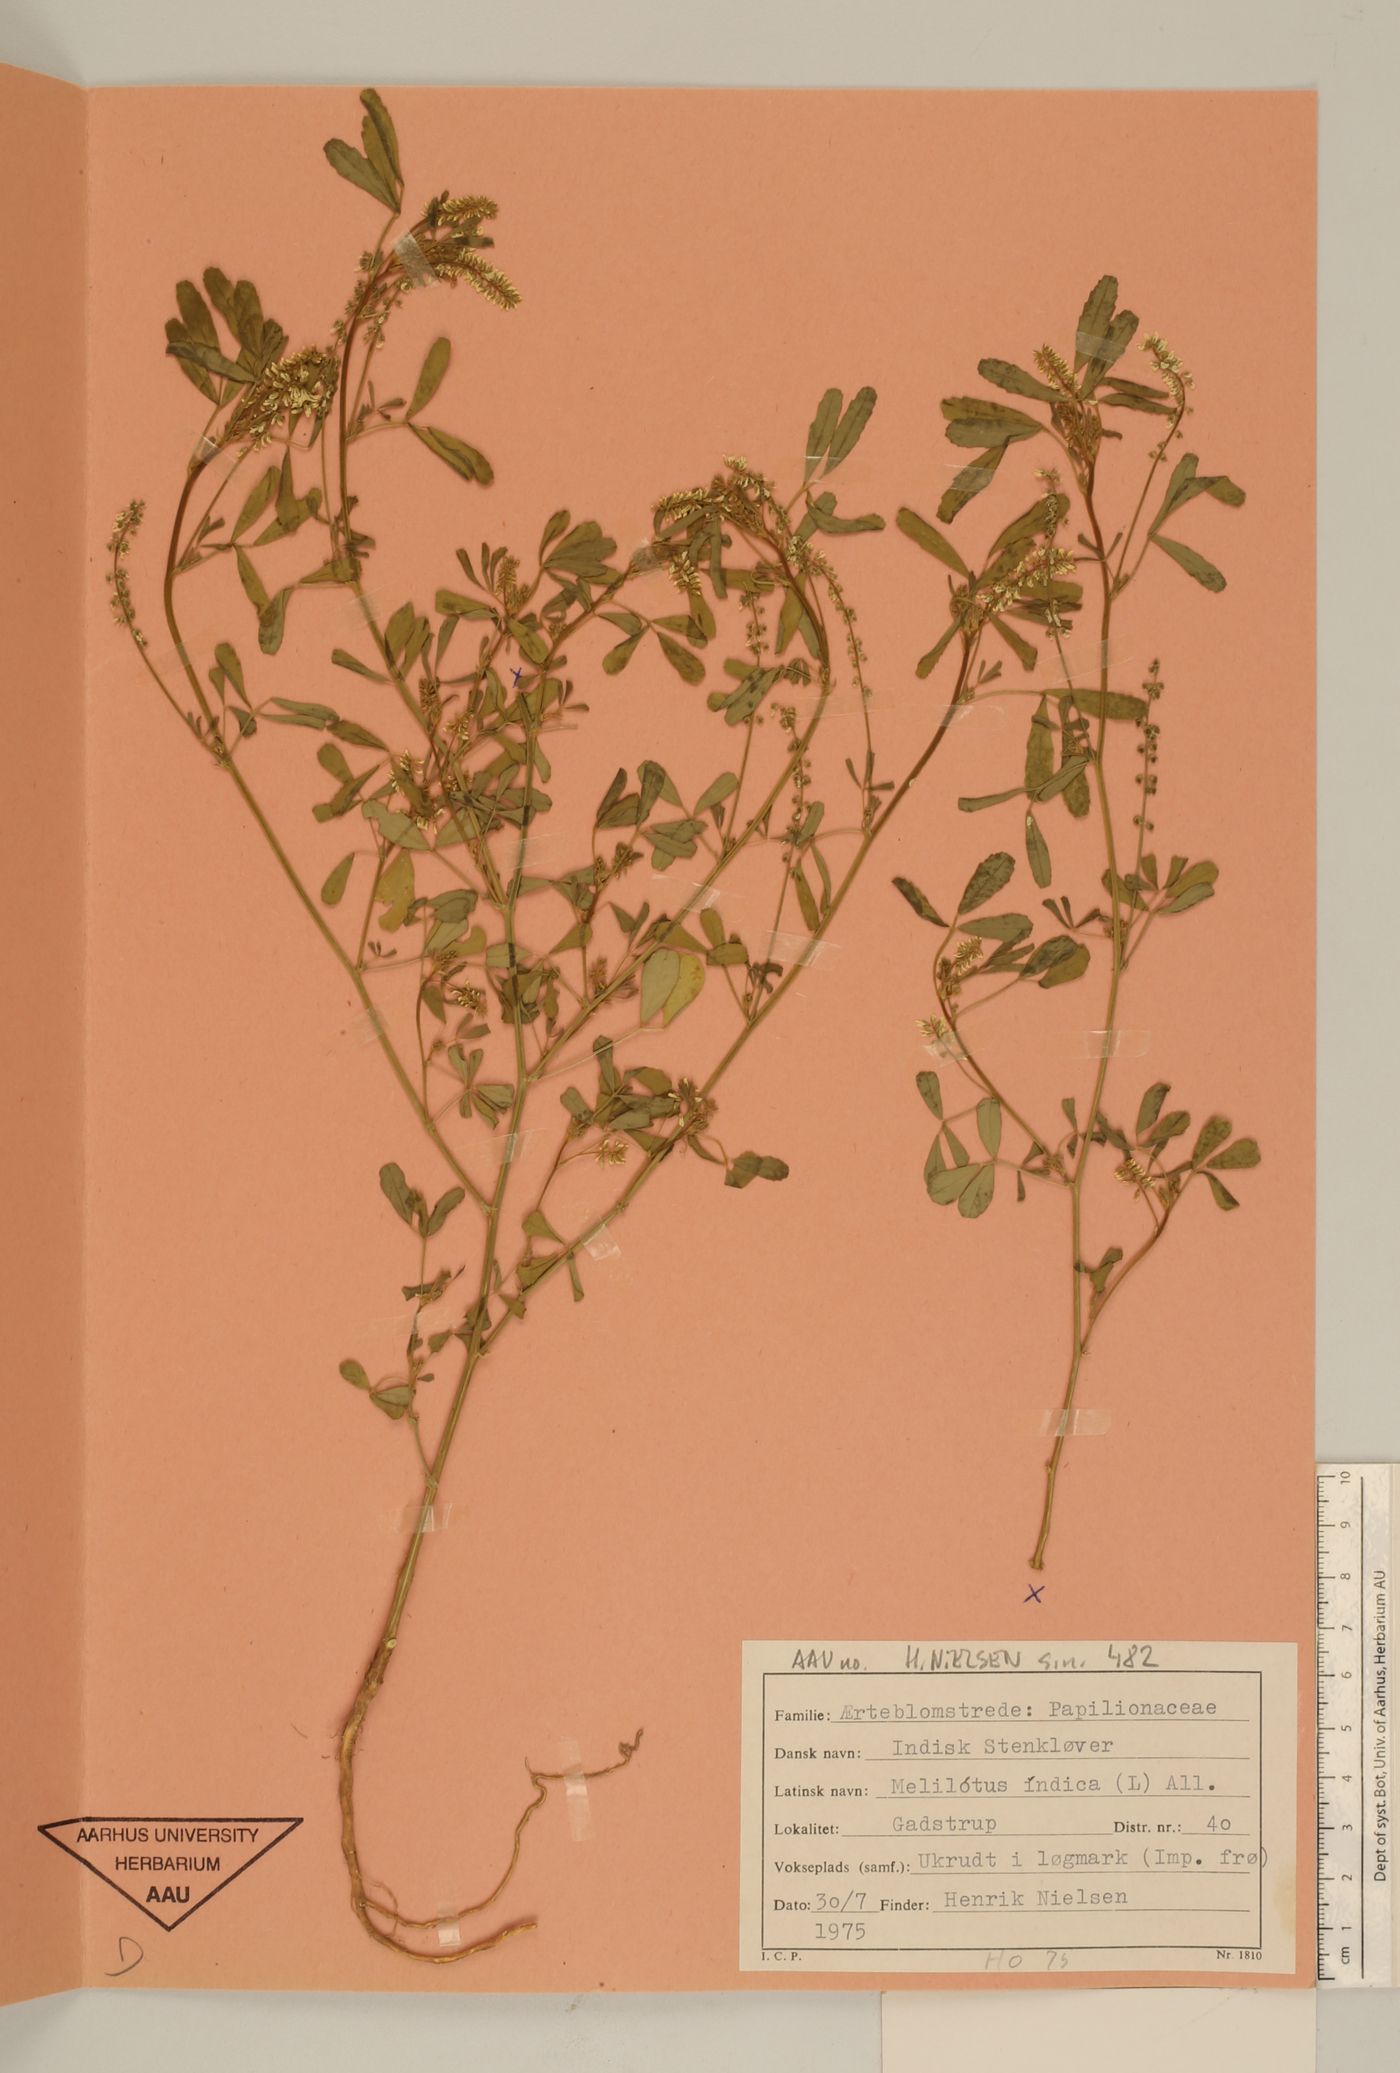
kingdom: Plantae
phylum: Tracheophyta
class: Magnoliopsida
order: Fabales
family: Fabaceae
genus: Melilotus
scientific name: Melilotus indicus
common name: Small melilot
